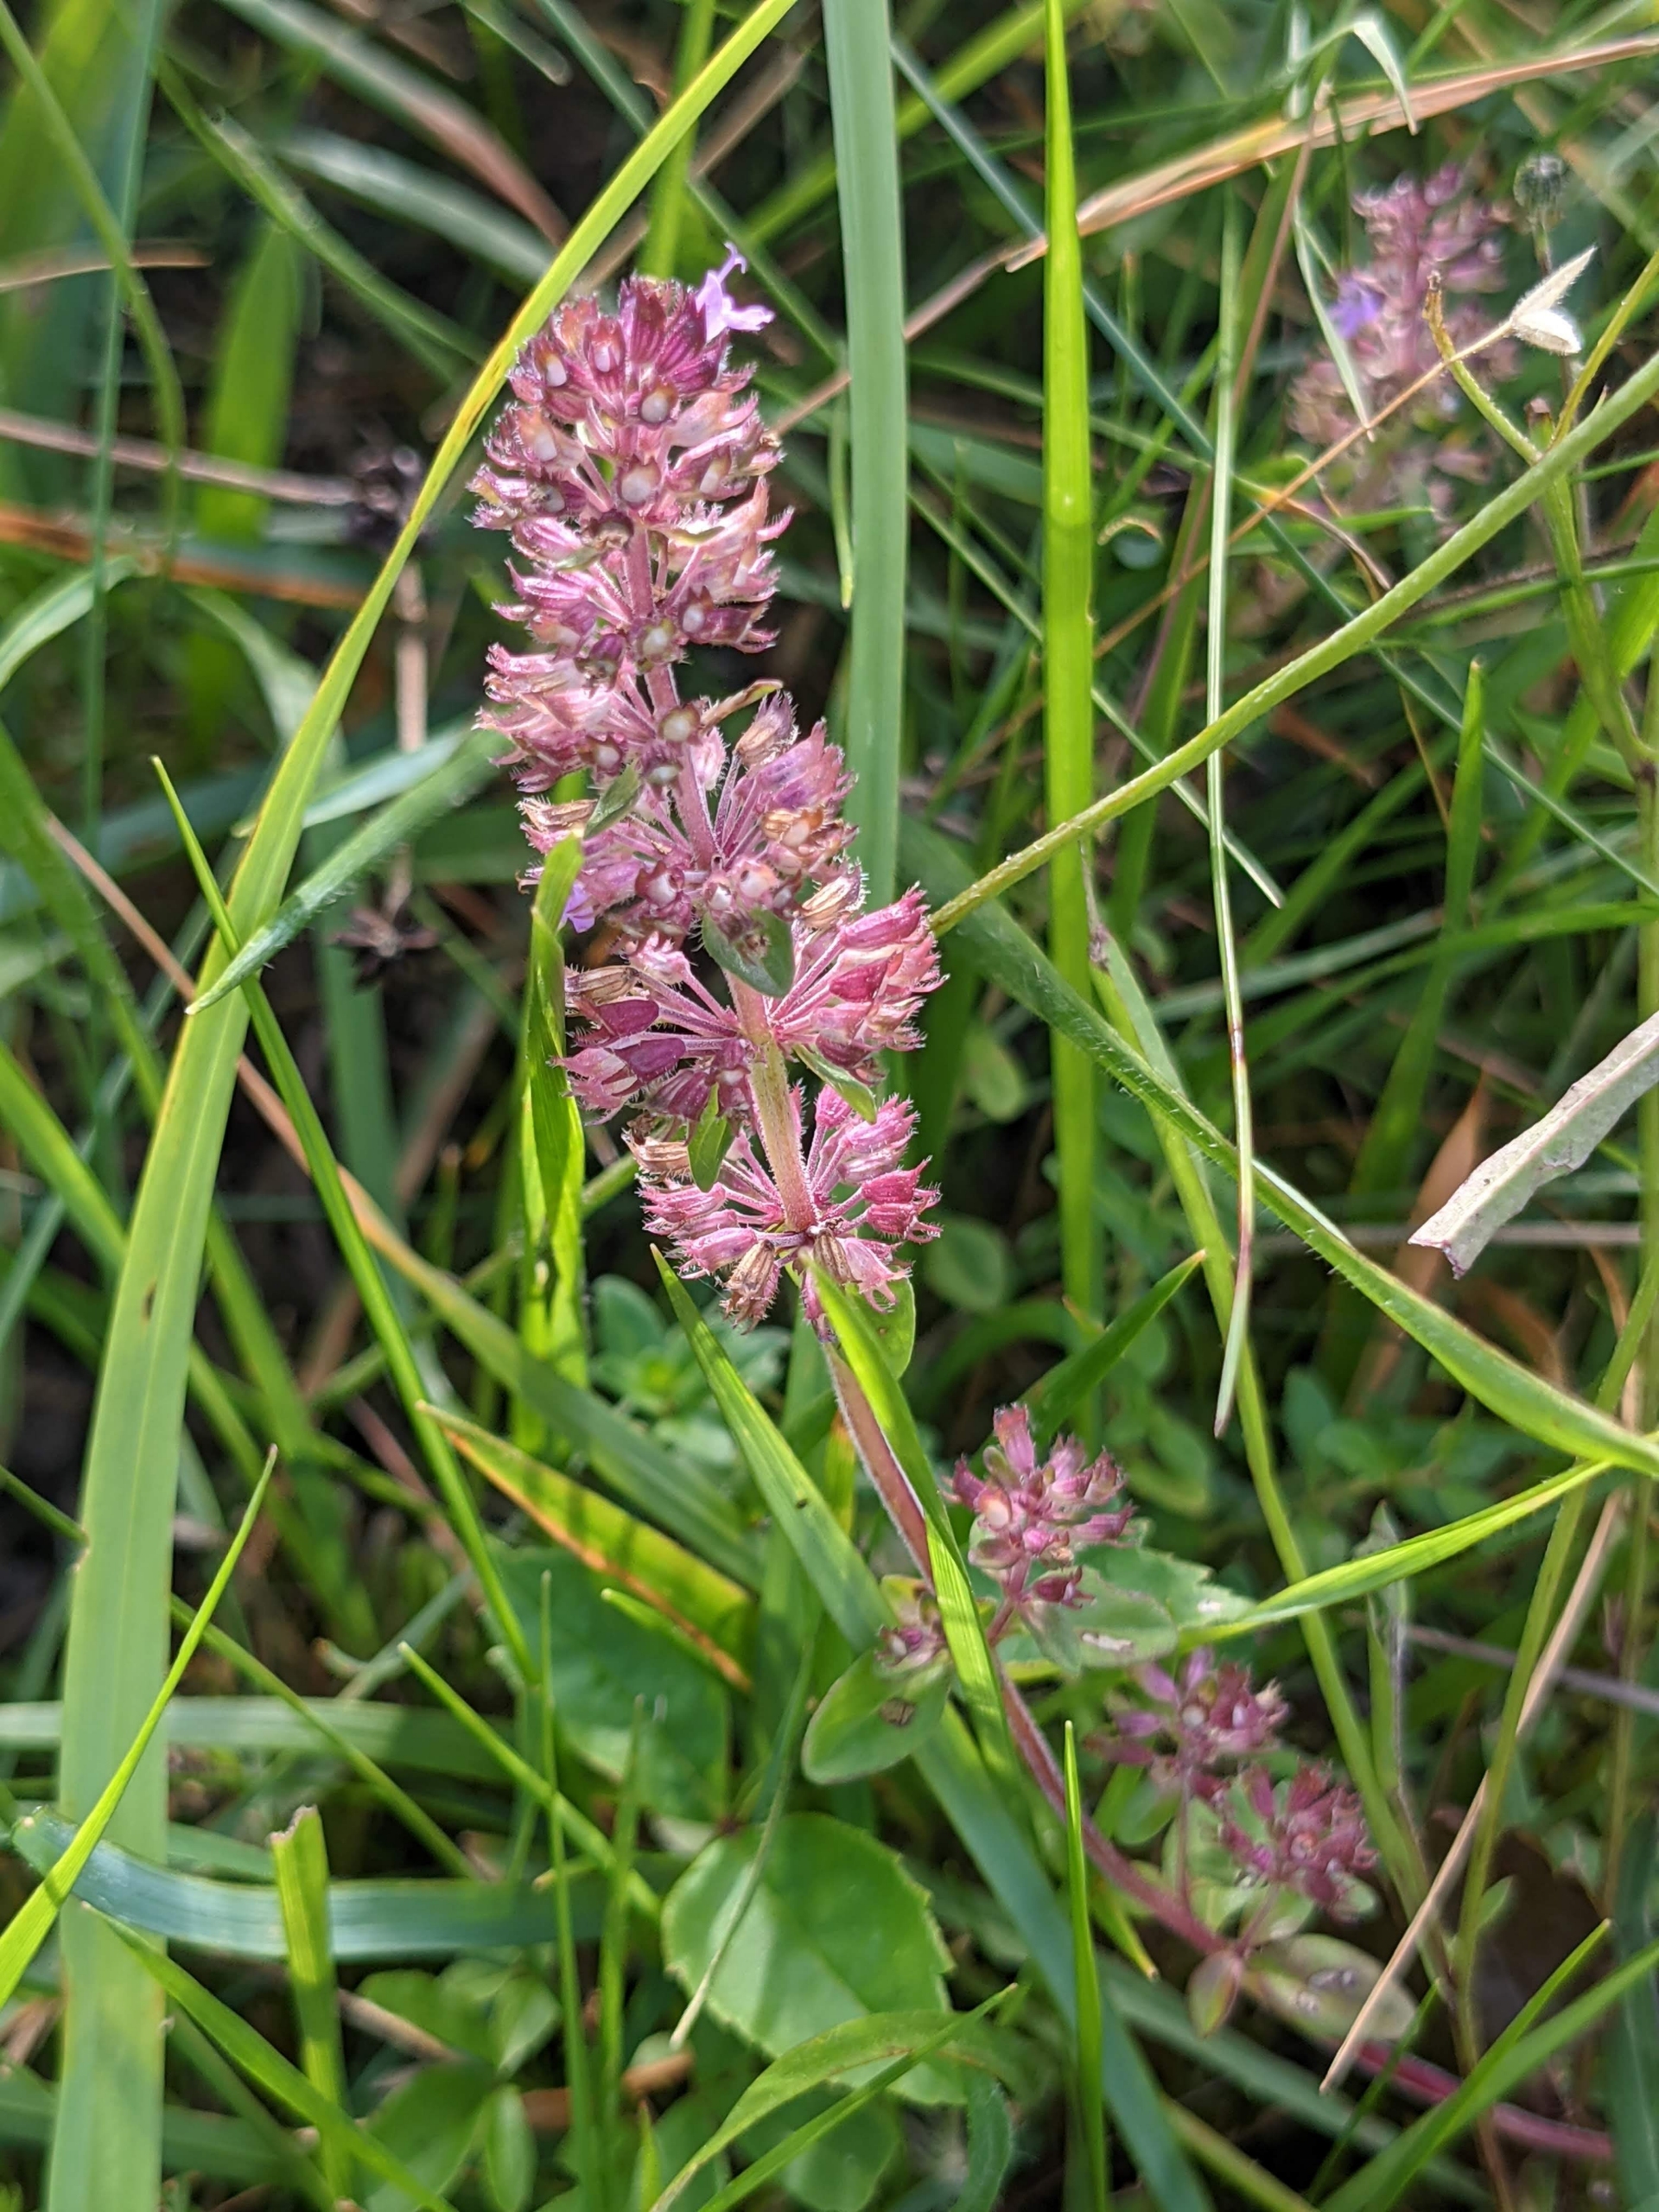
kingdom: Plantae
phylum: Tracheophyta
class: Magnoliopsida
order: Lamiales
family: Lamiaceae
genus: Thymus
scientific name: Thymus pulegioides
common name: Bredbladet timian
